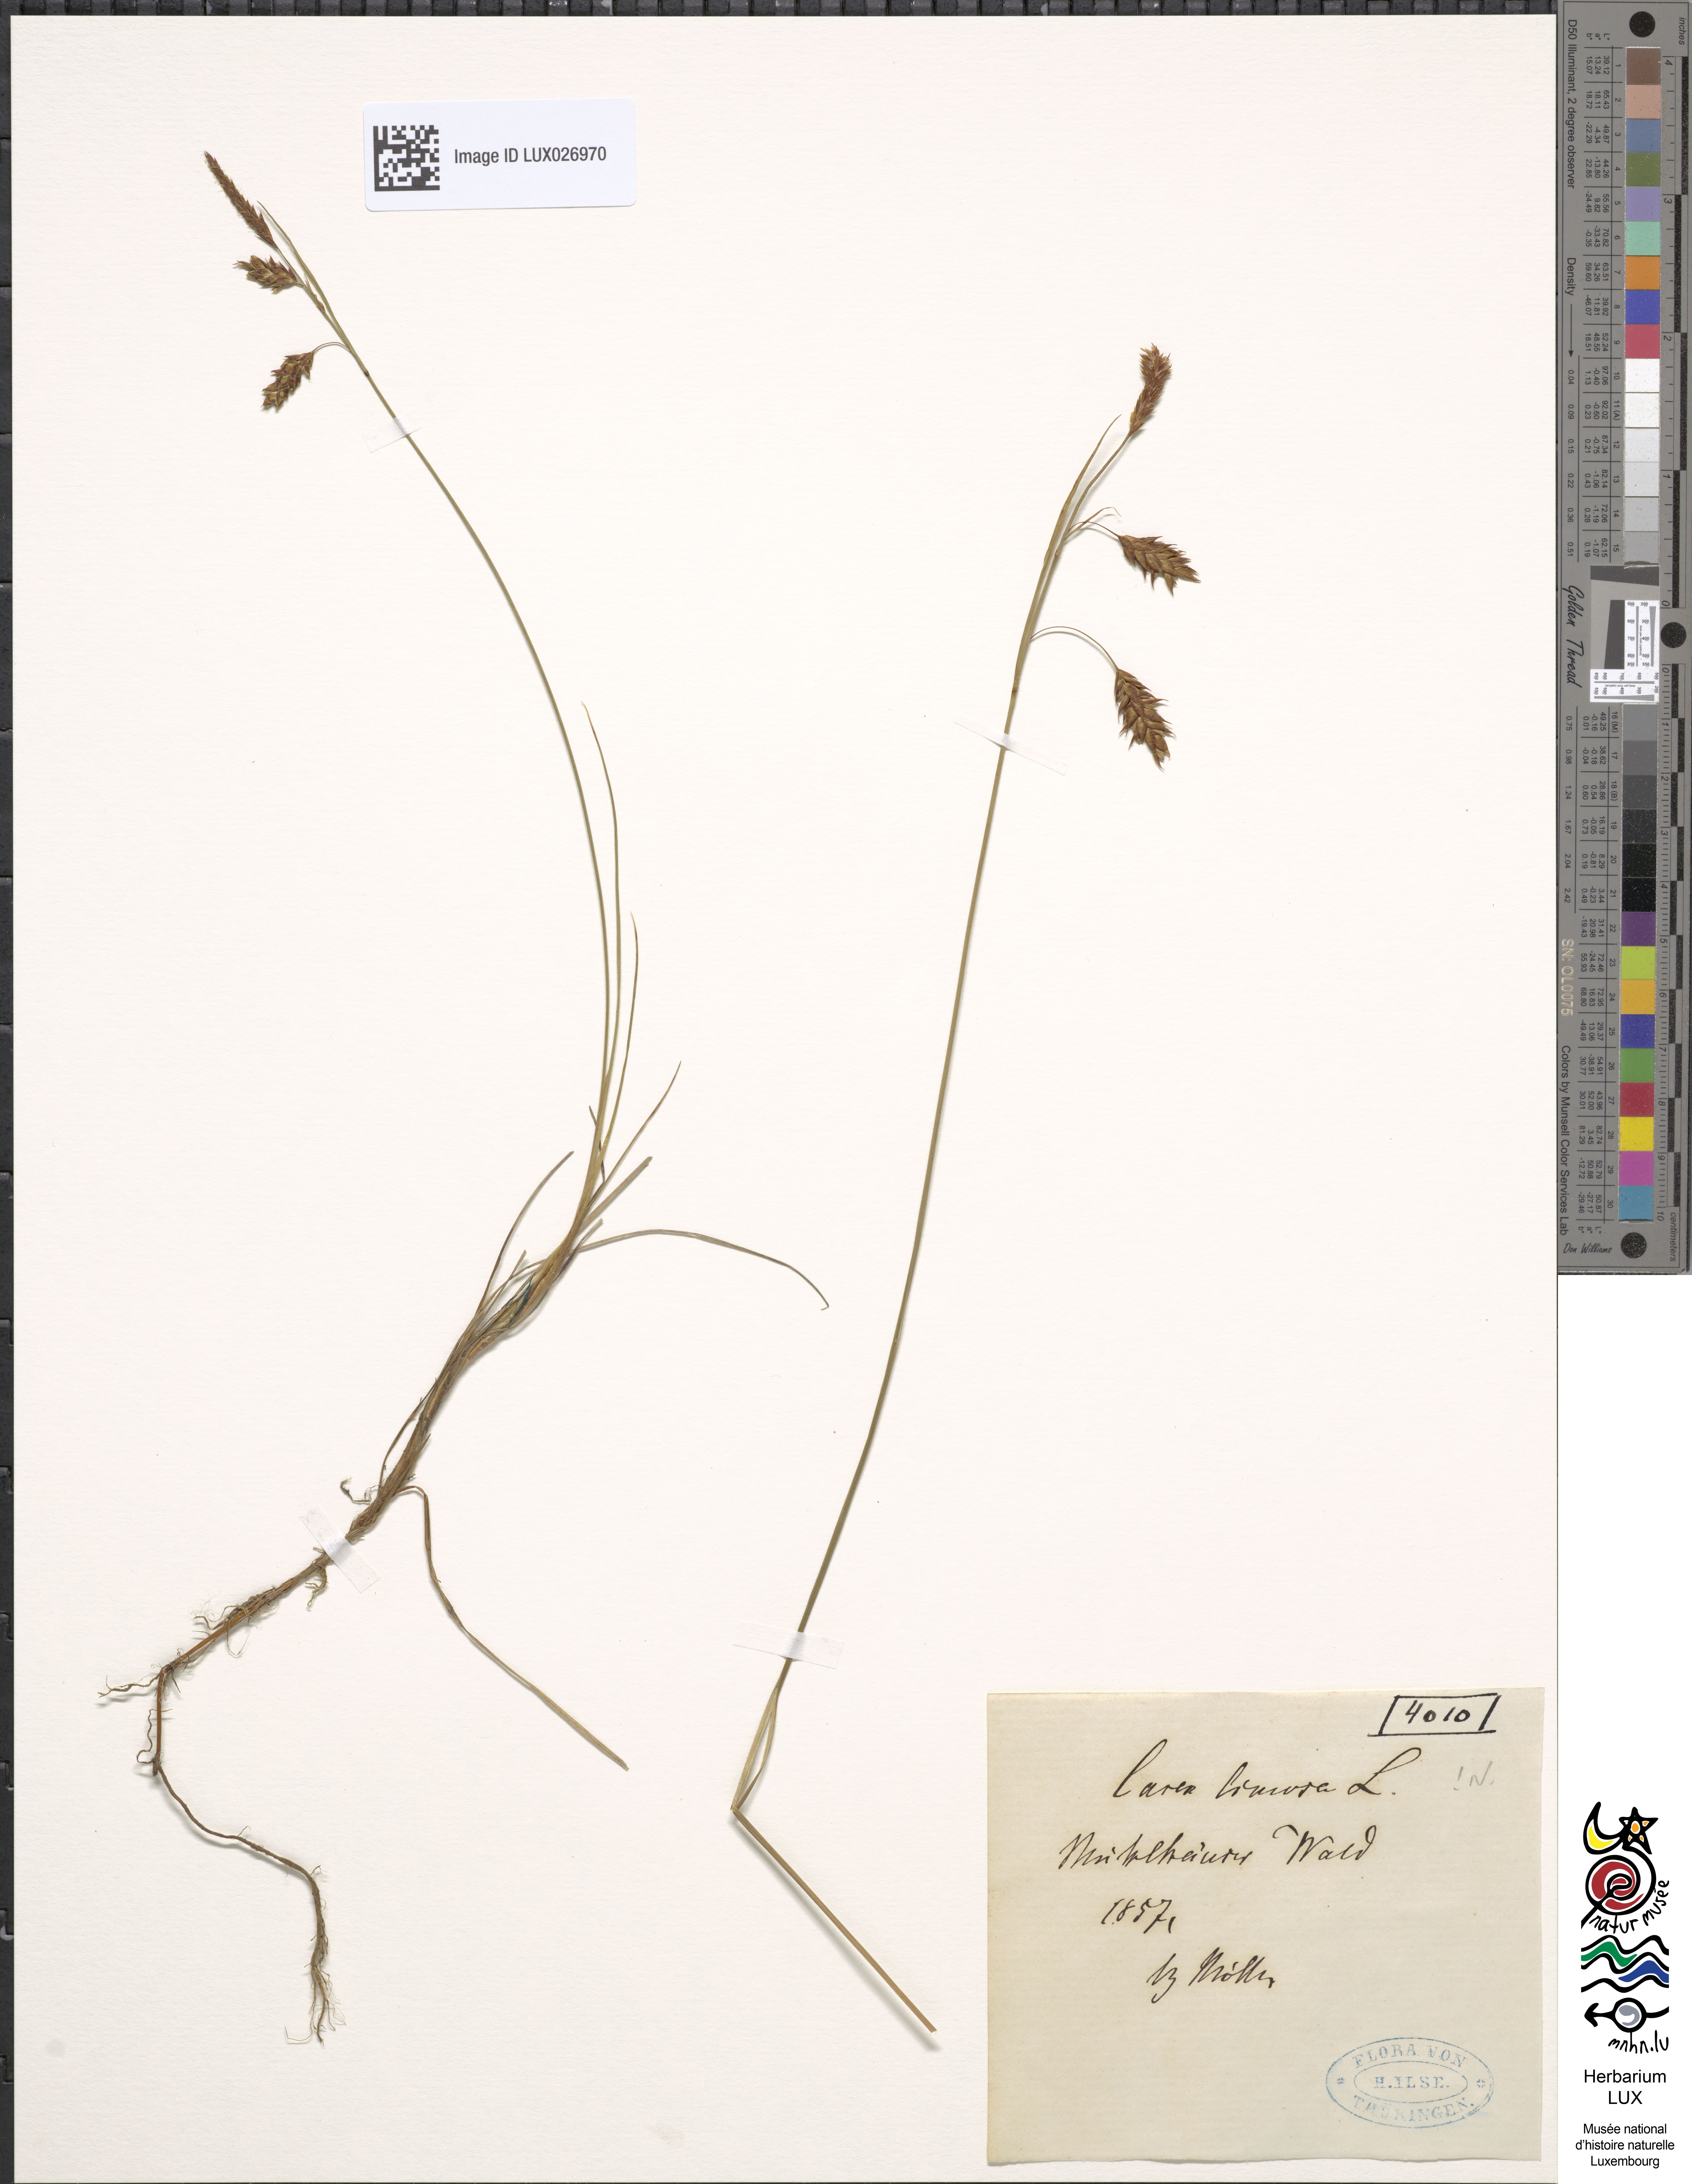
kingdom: Plantae
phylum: Tracheophyta
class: Liliopsida
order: Poales
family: Cyperaceae
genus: Carex
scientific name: Carex limosa
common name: Bog sedge
